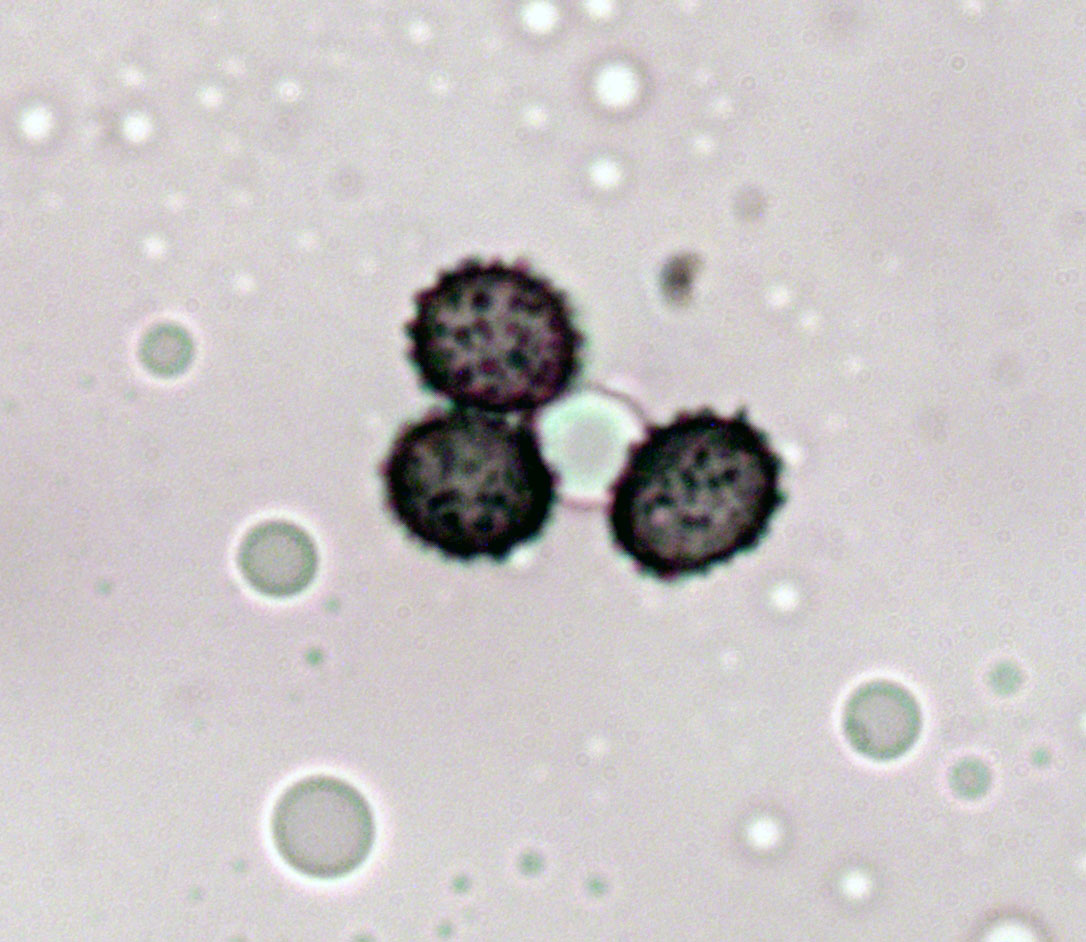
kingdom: Fungi
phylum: Basidiomycota
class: Agaricomycetes
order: Russulales
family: Russulaceae
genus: Russula
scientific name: Russula farinipes
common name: gul kam-skørhat
